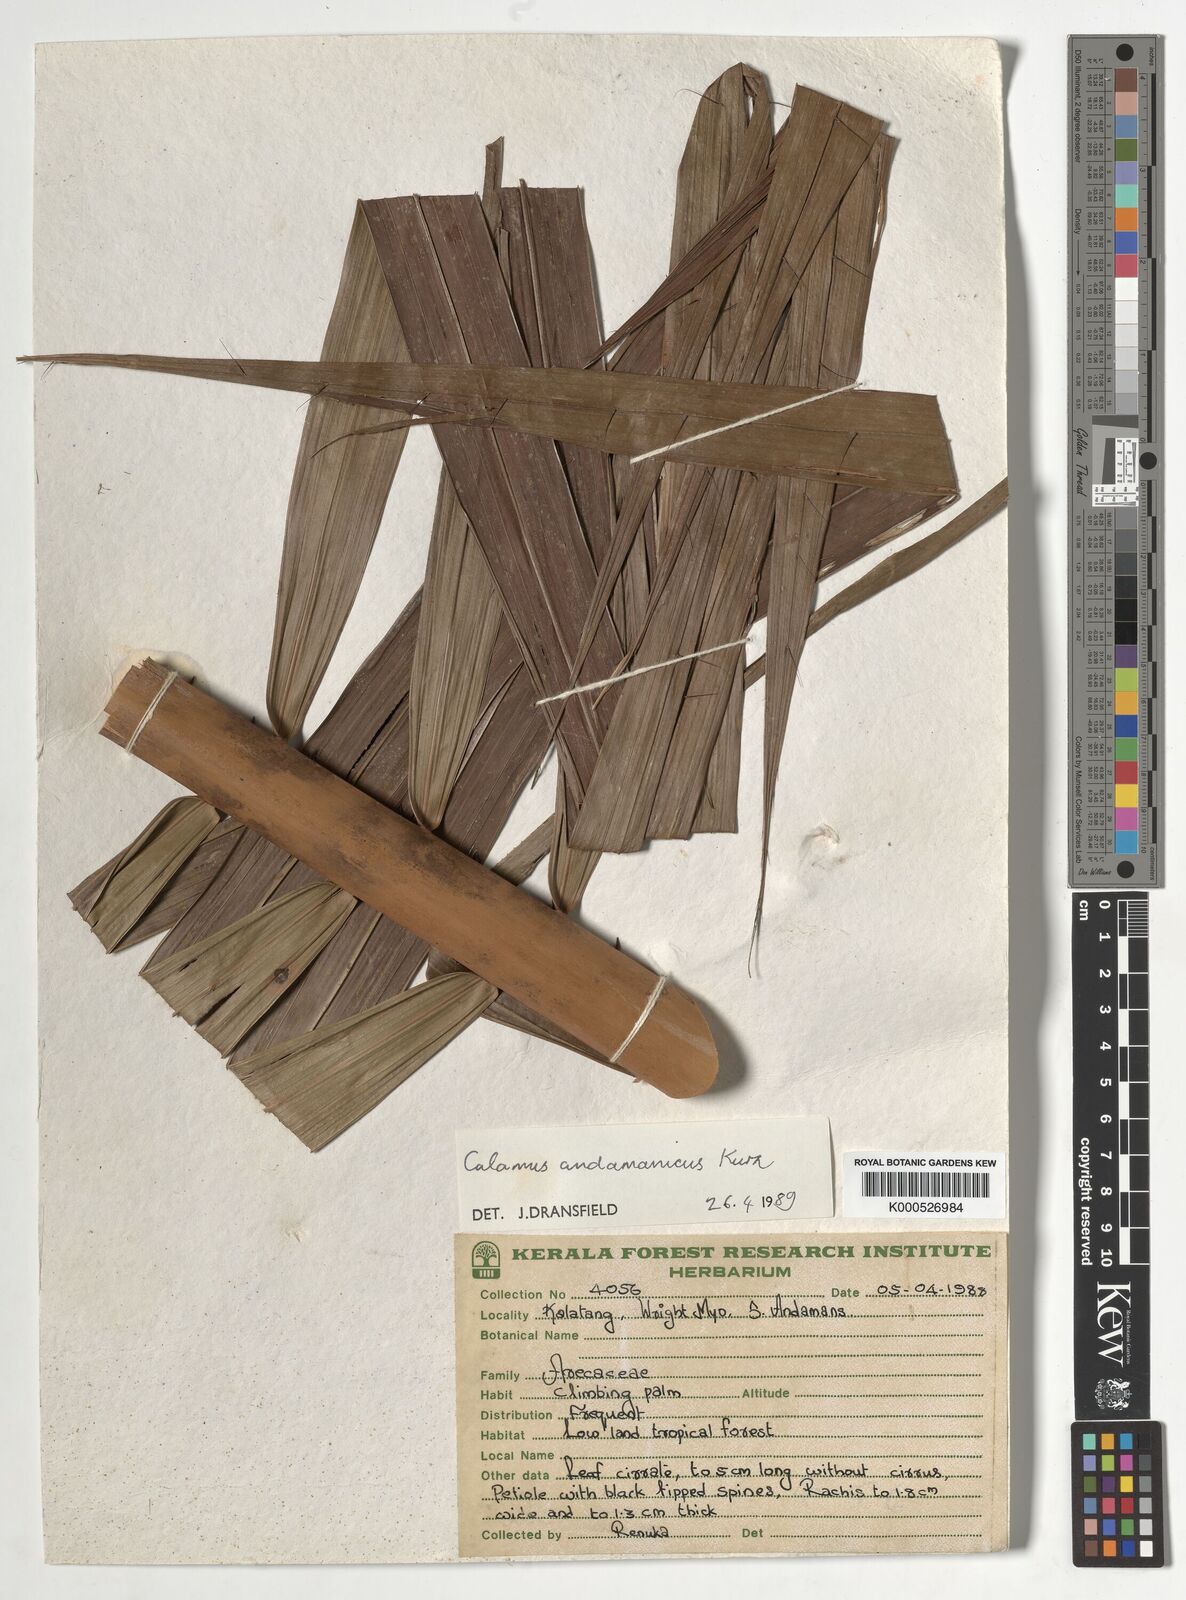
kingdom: Plantae
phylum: Tracheophyta
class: Liliopsida
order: Arecales
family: Arecaceae
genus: Calamus
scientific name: Calamus andamanicus
